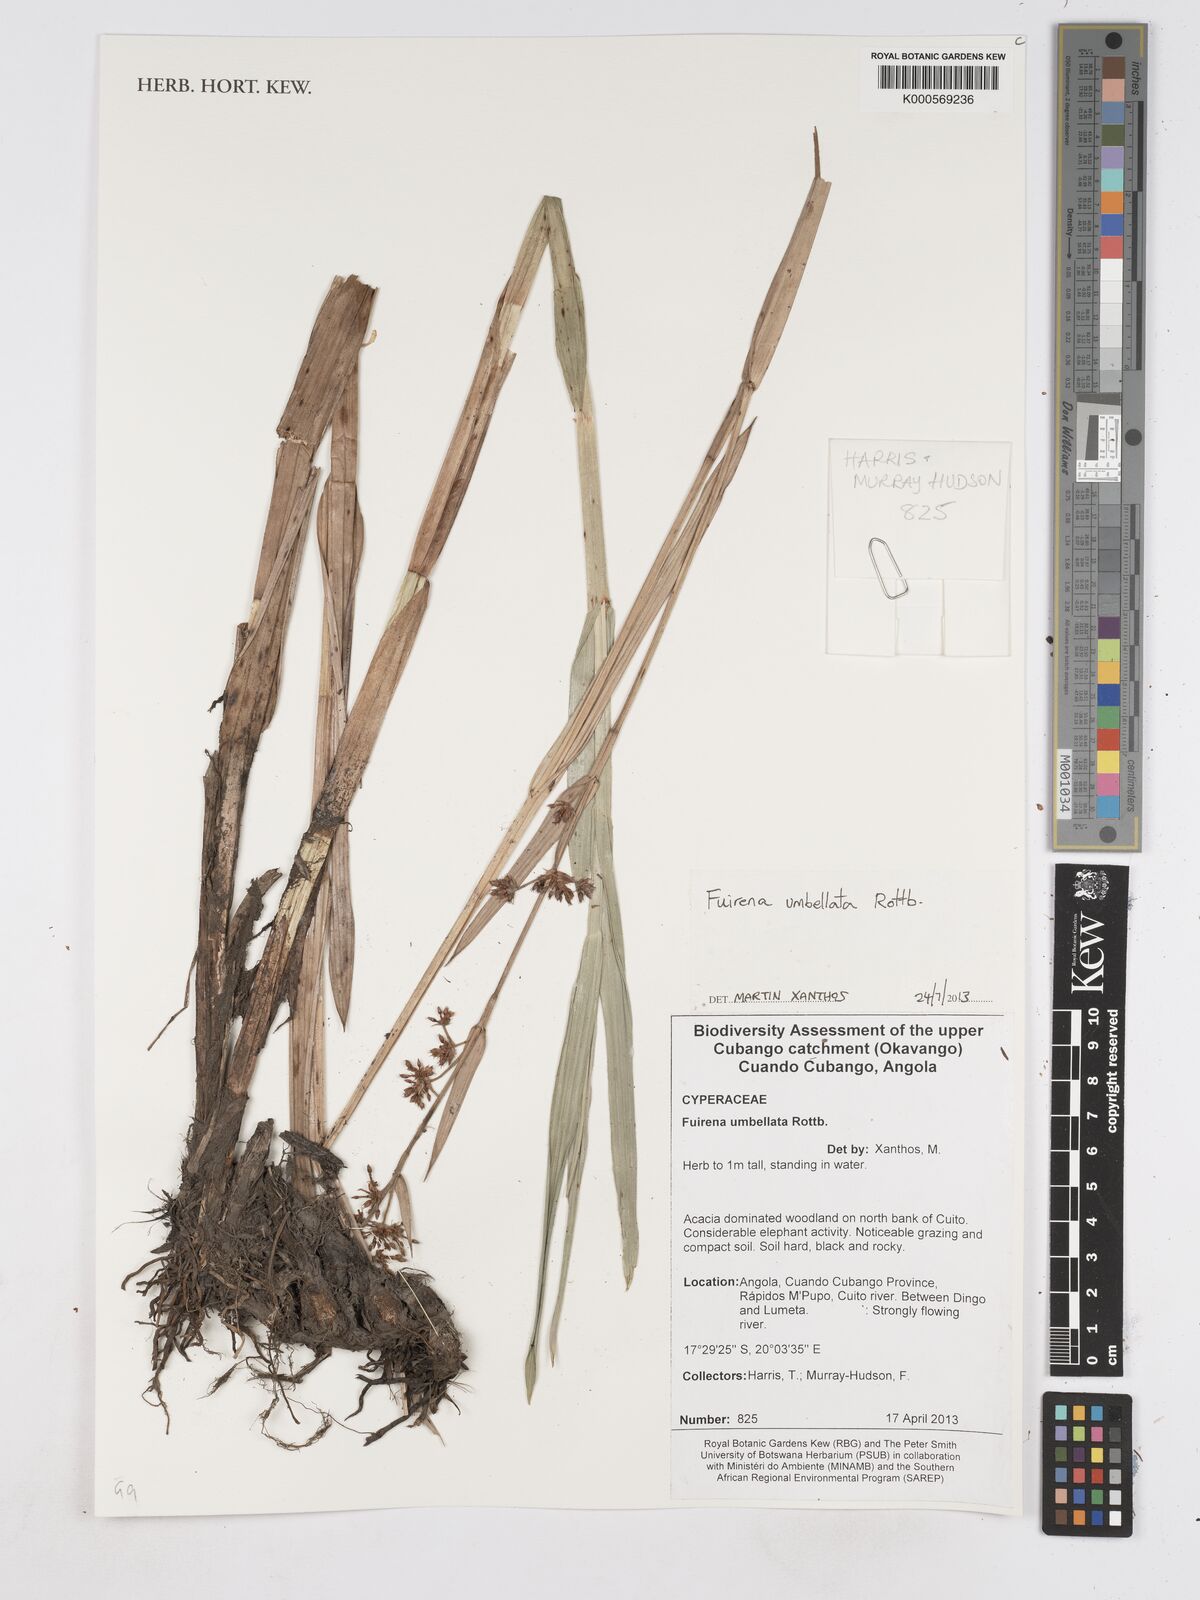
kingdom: Plantae
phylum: Tracheophyta
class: Liliopsida
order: Poales
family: Cyperaceae
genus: Fuirena
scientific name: Fuirena umbellata
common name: Yefen
